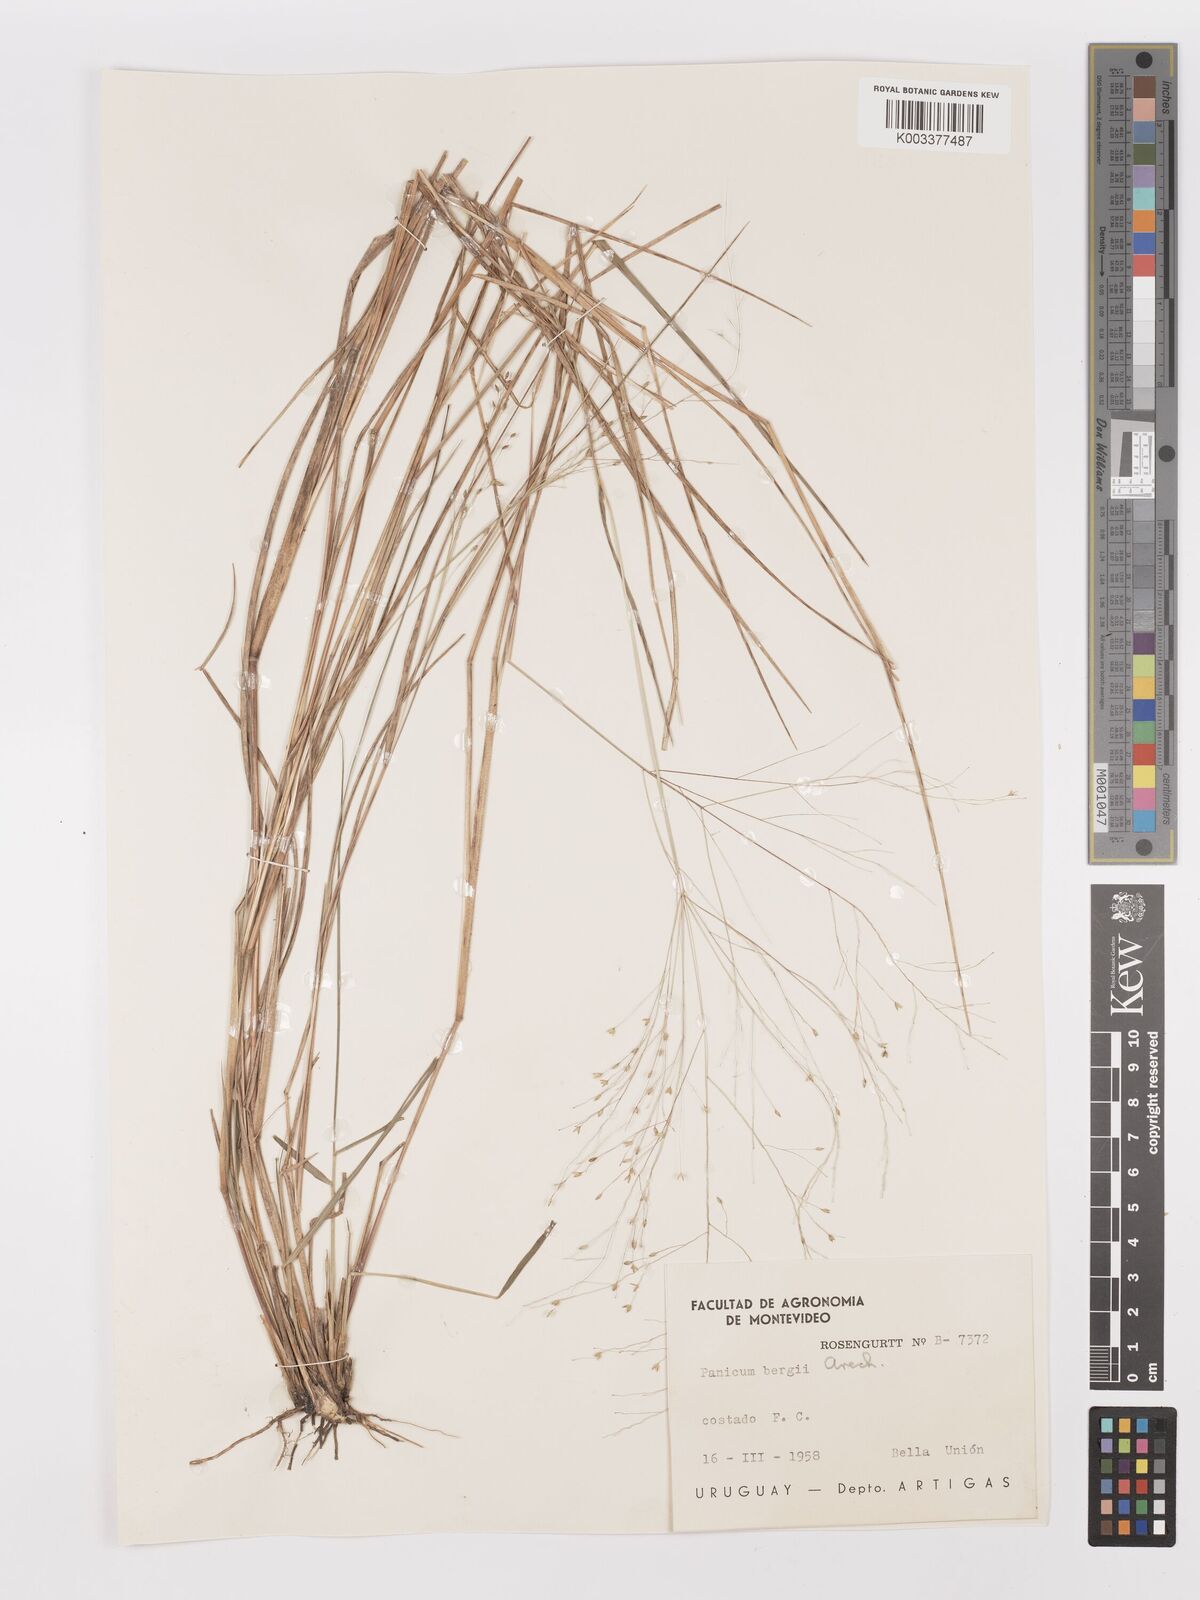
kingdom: Plantae
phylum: Tracheophyta
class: Liliopsida
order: Poales
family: Poaceae
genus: Panicum
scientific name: Panicum bergii
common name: Berg's panicgrass
